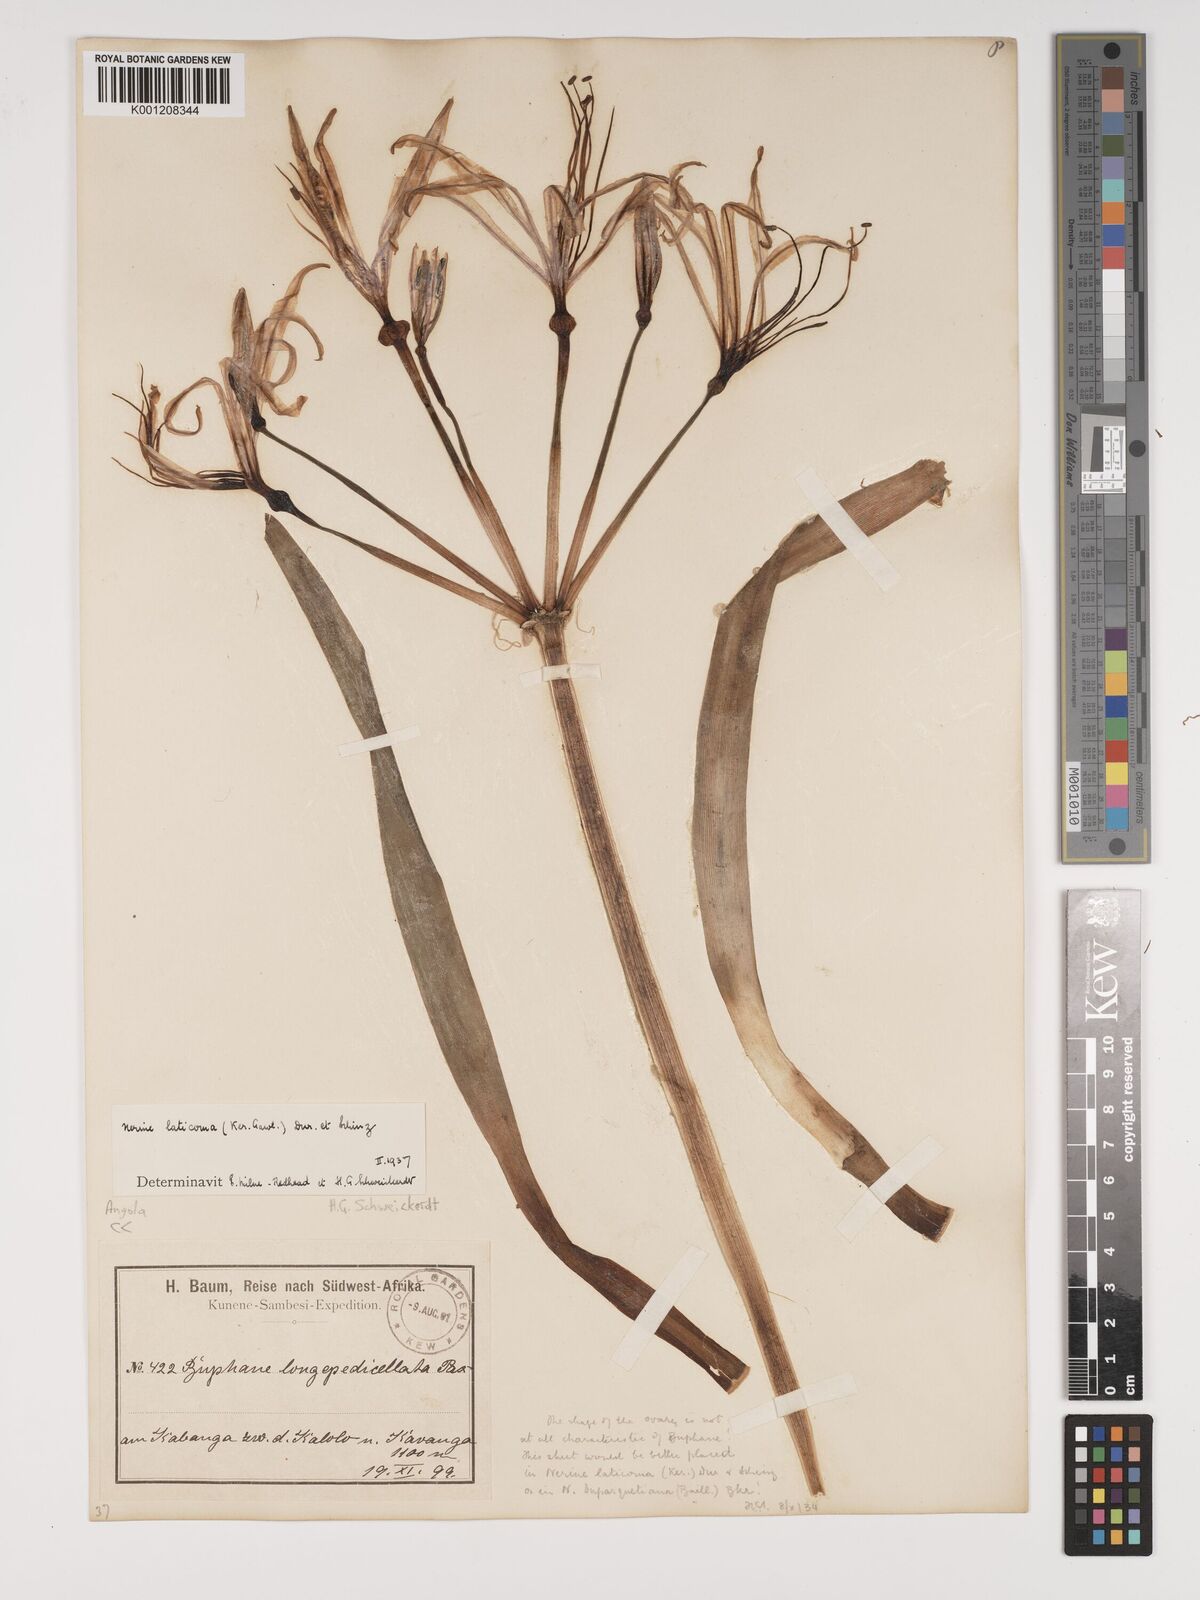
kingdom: Plantae
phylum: Tracheophyta
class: Liliopsida
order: Asparagales
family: Amaryllidaceae
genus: Nerine
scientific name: Nerine laticoma
